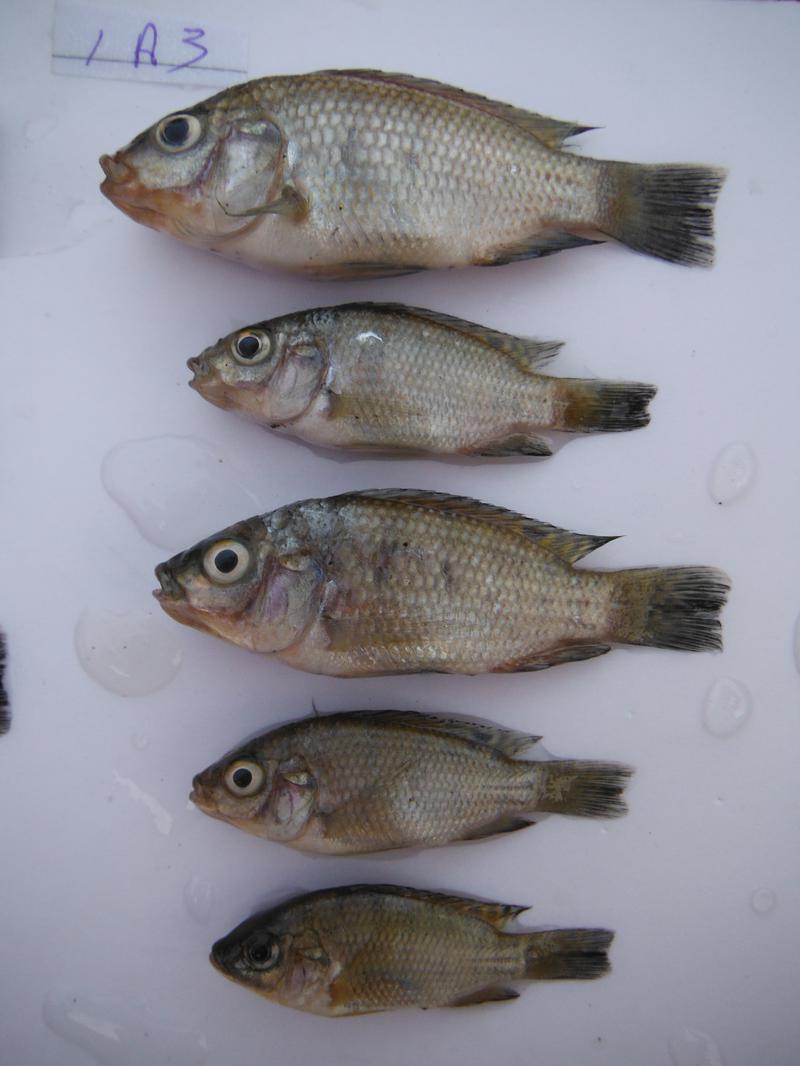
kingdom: Animalia
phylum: Chordata
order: Perciformes
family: Cichlidae
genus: Oreochromis
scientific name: Oreochromis urolepis
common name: Wami tilapia
